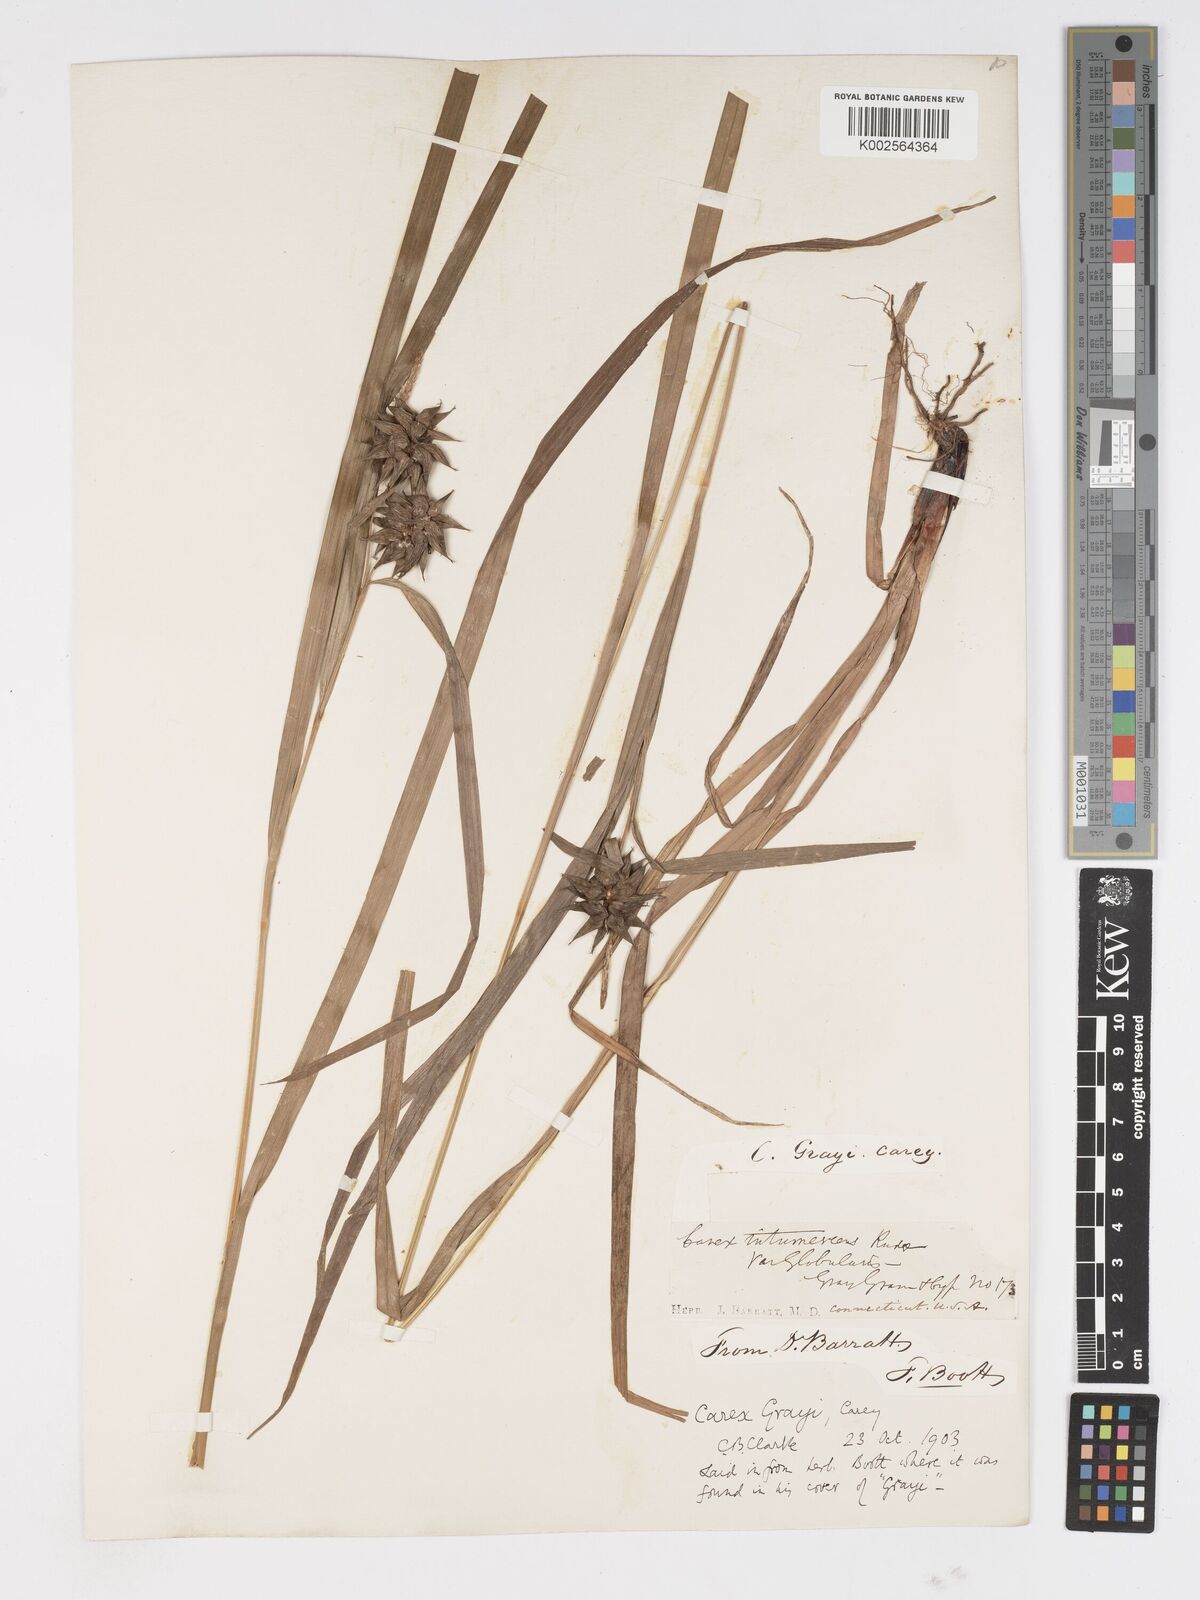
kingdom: Plantae
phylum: Tracheophyta
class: Liliopsida
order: Poales
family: Cyperaceae
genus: Carex
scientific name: Carex grayi
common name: Asa gray's sedge
